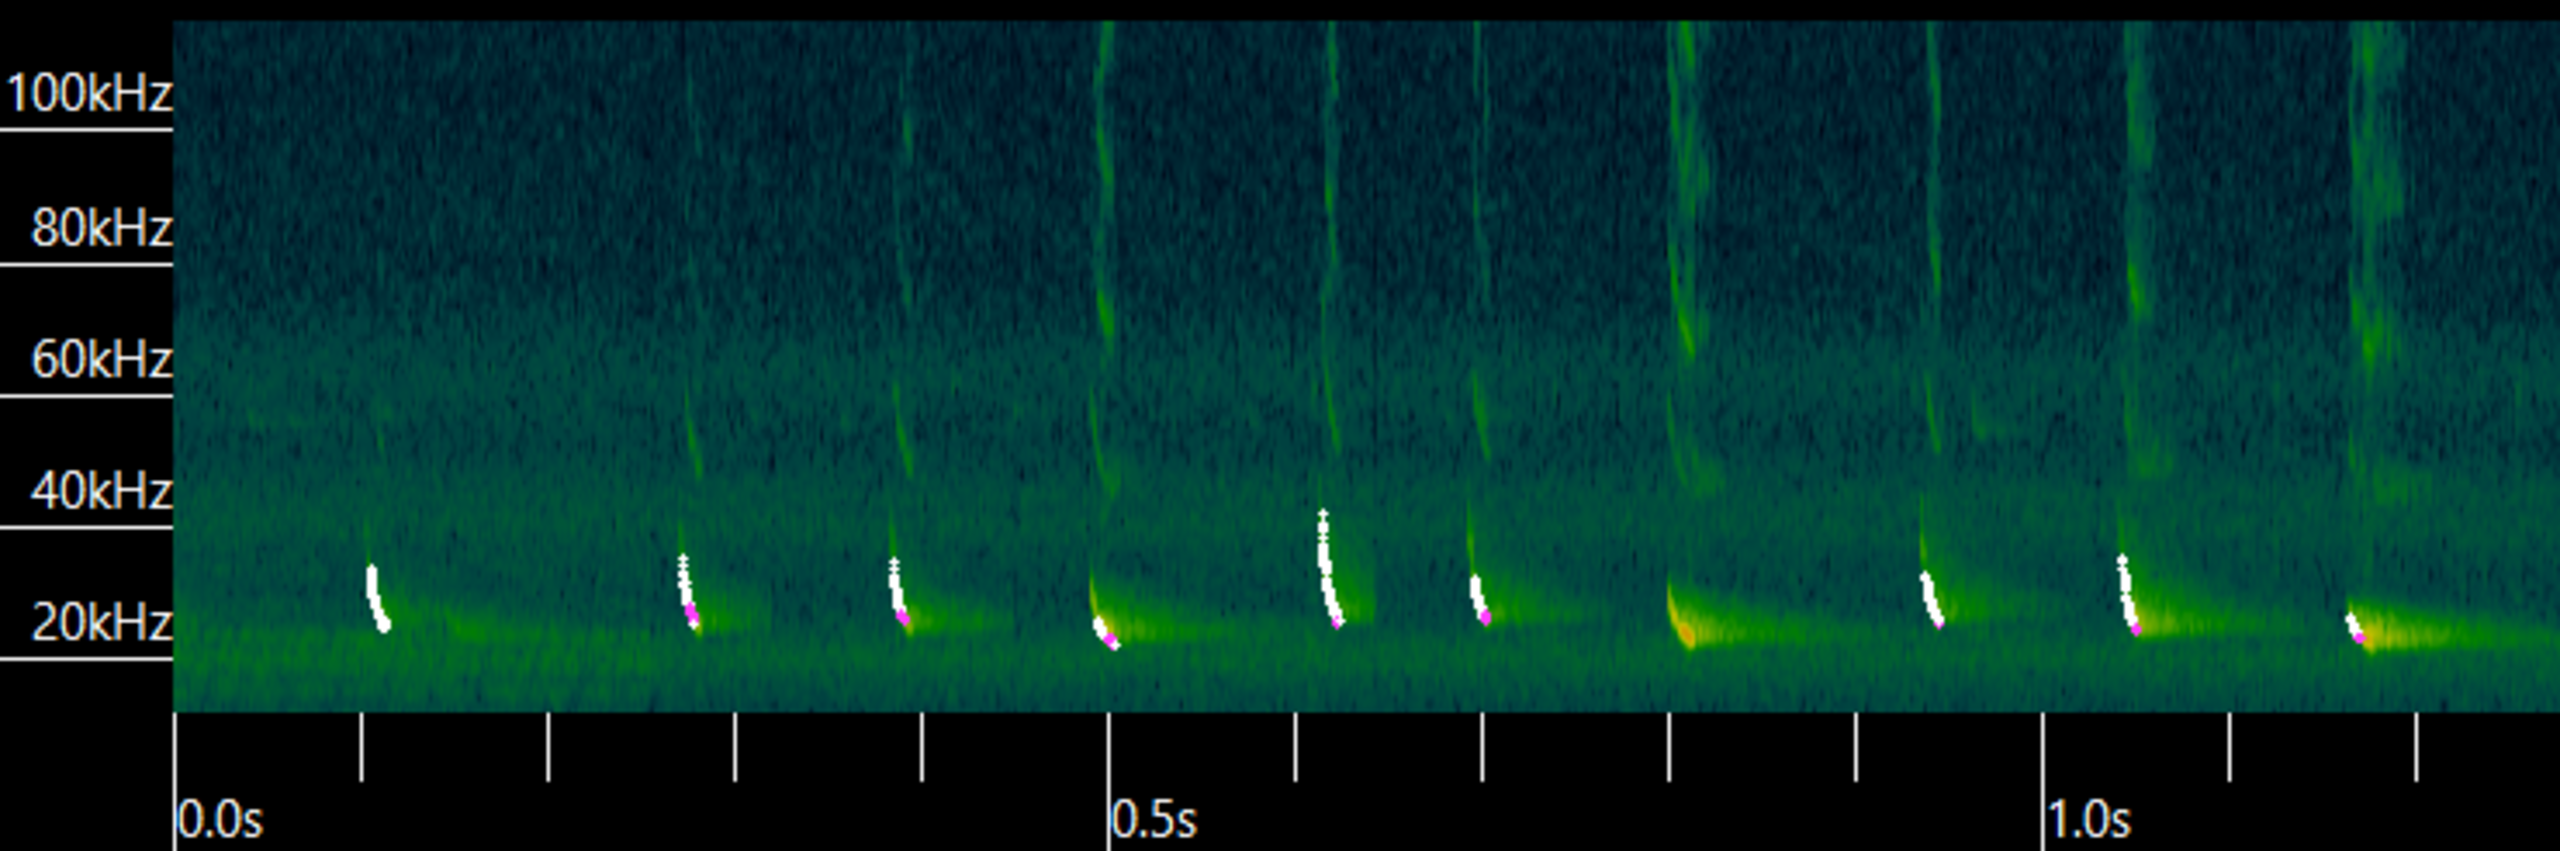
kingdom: Animalia
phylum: Chordata
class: Mammalia
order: Chiroptera
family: Vespertilionidae
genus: Eptesicus
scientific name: Eptesicus serotinus
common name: Sydflagermus
